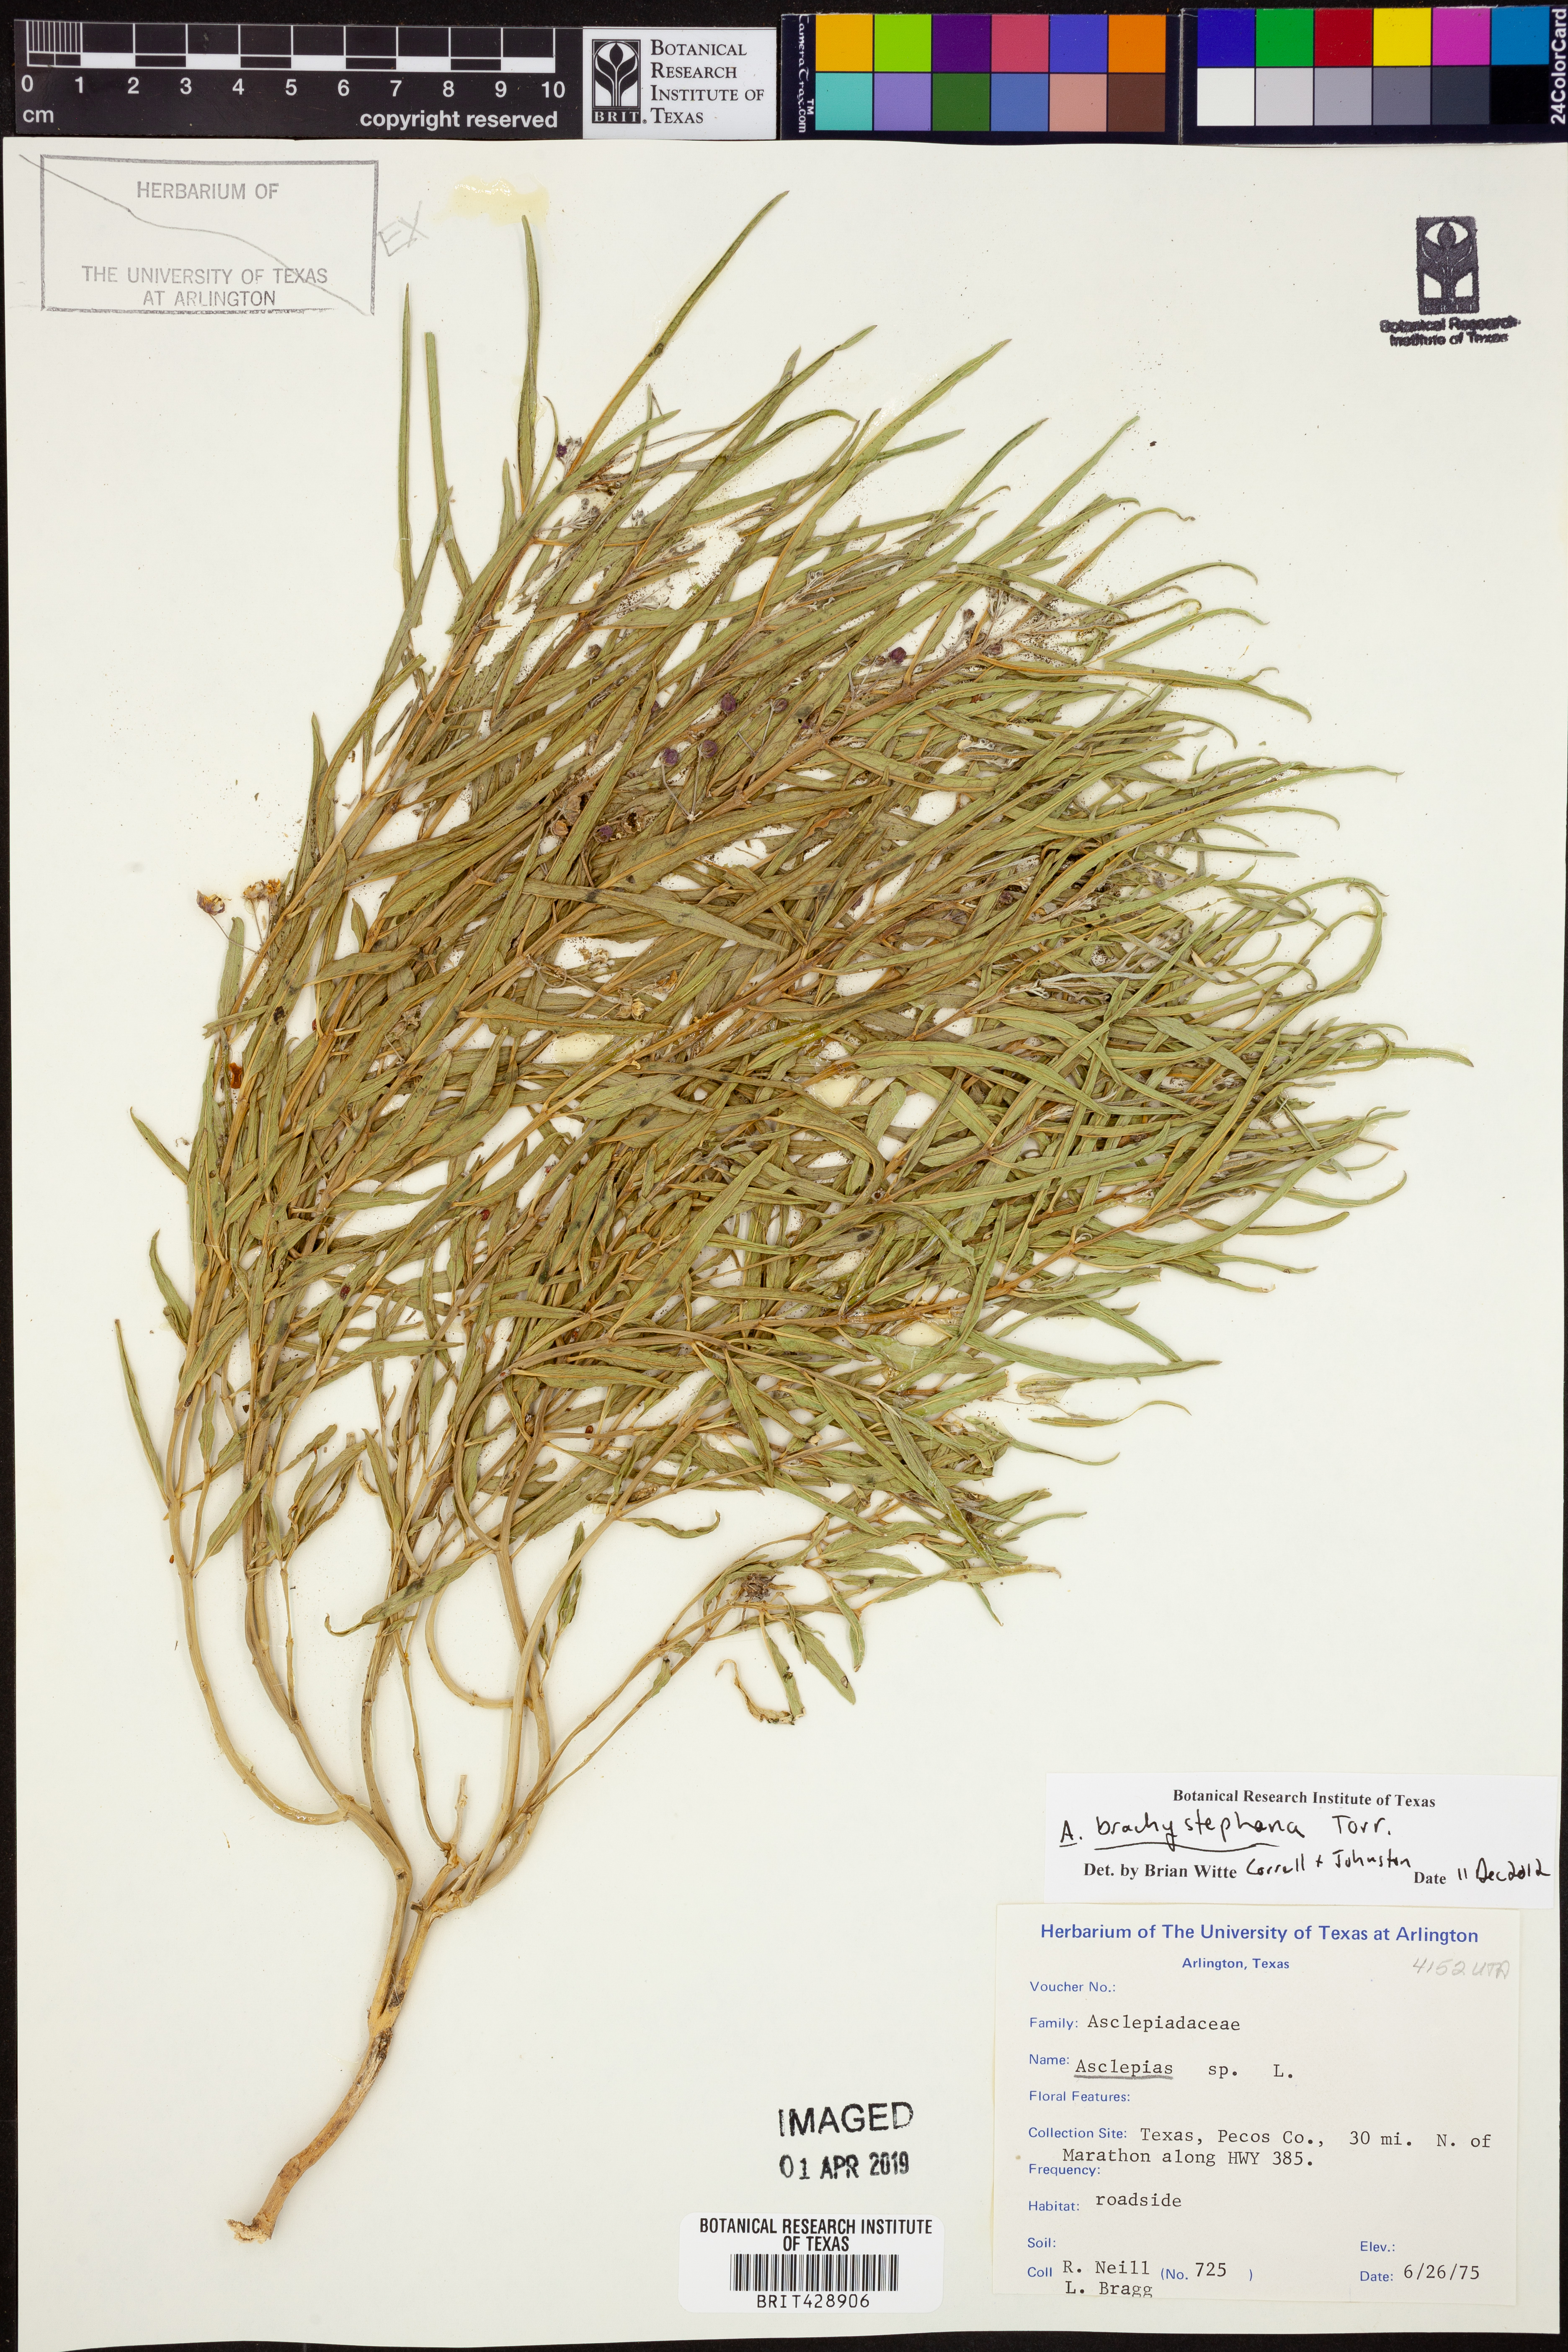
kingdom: Plantae
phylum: Tracheophyta
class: Magnoliopsida
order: Gentianales
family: Apocynaceae
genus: Asclepias
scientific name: Asclepias brachystephana
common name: Shortcrown milkweed
